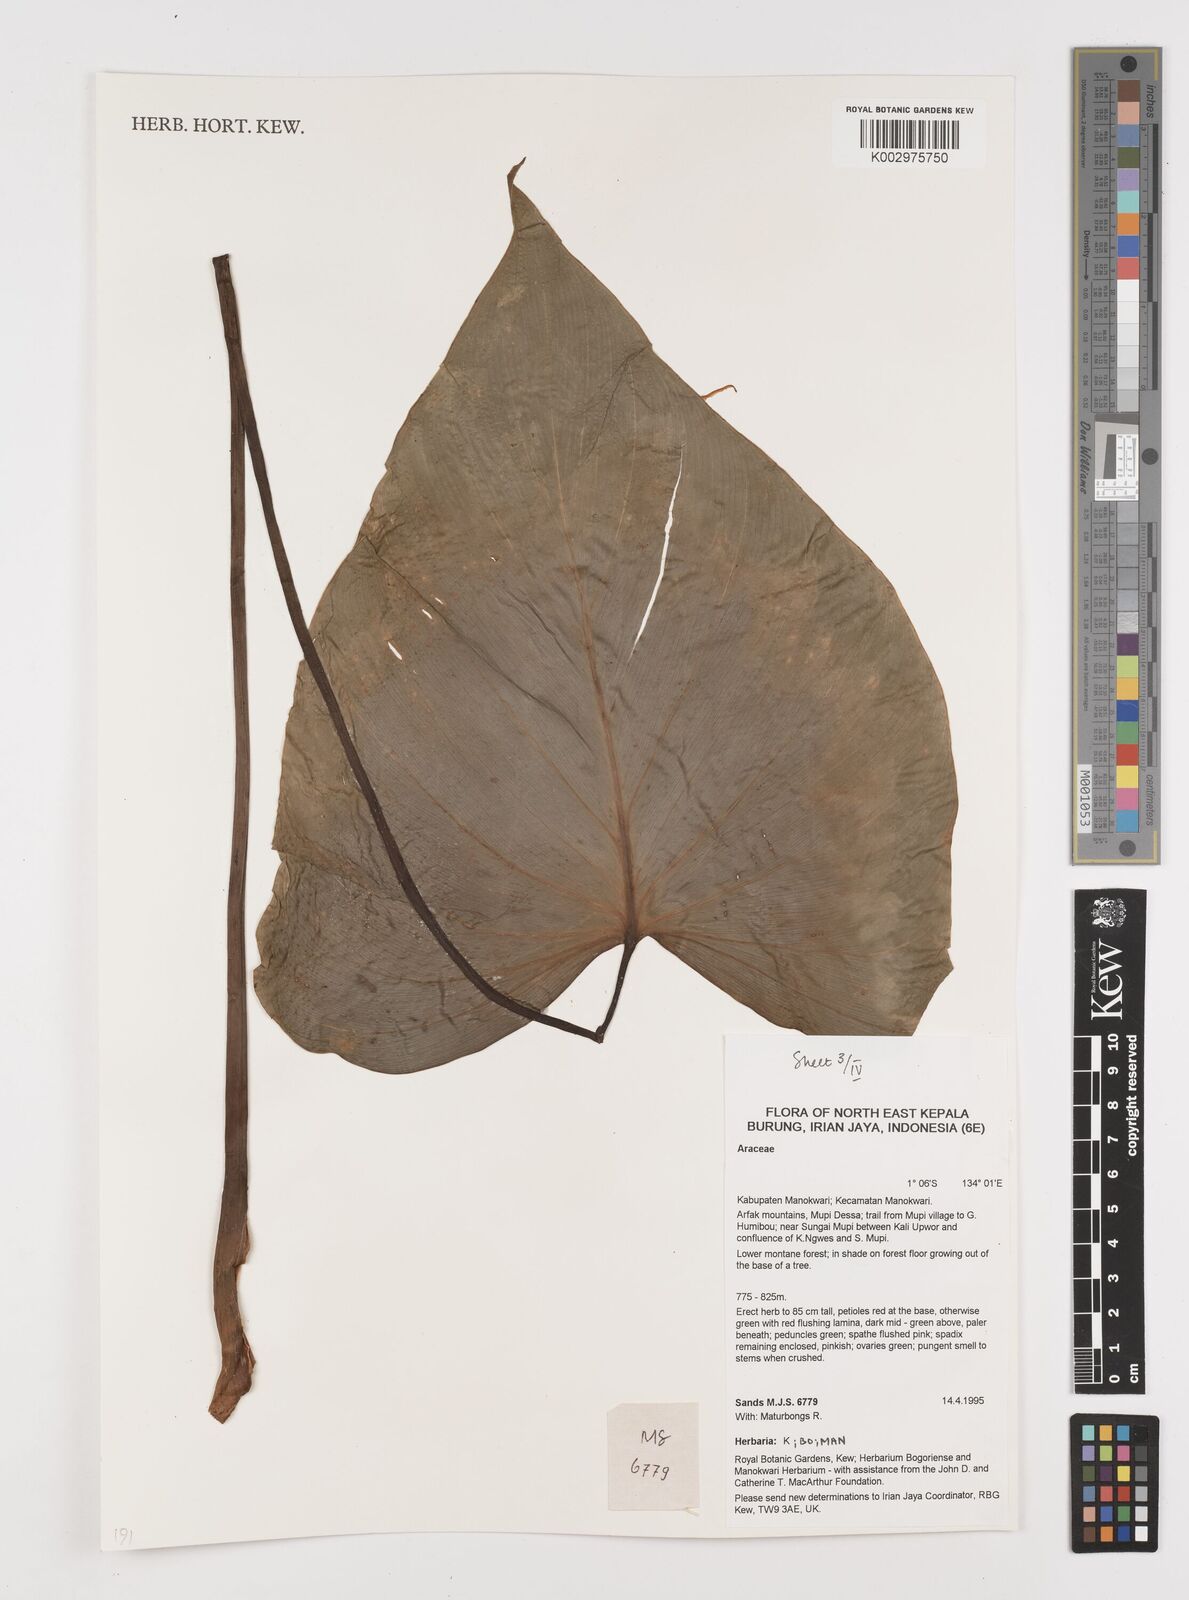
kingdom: Plantae
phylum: Tracheophyta
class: Liliopsida
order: Alismatales
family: Araceae
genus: Homalomena
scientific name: Homalomena
